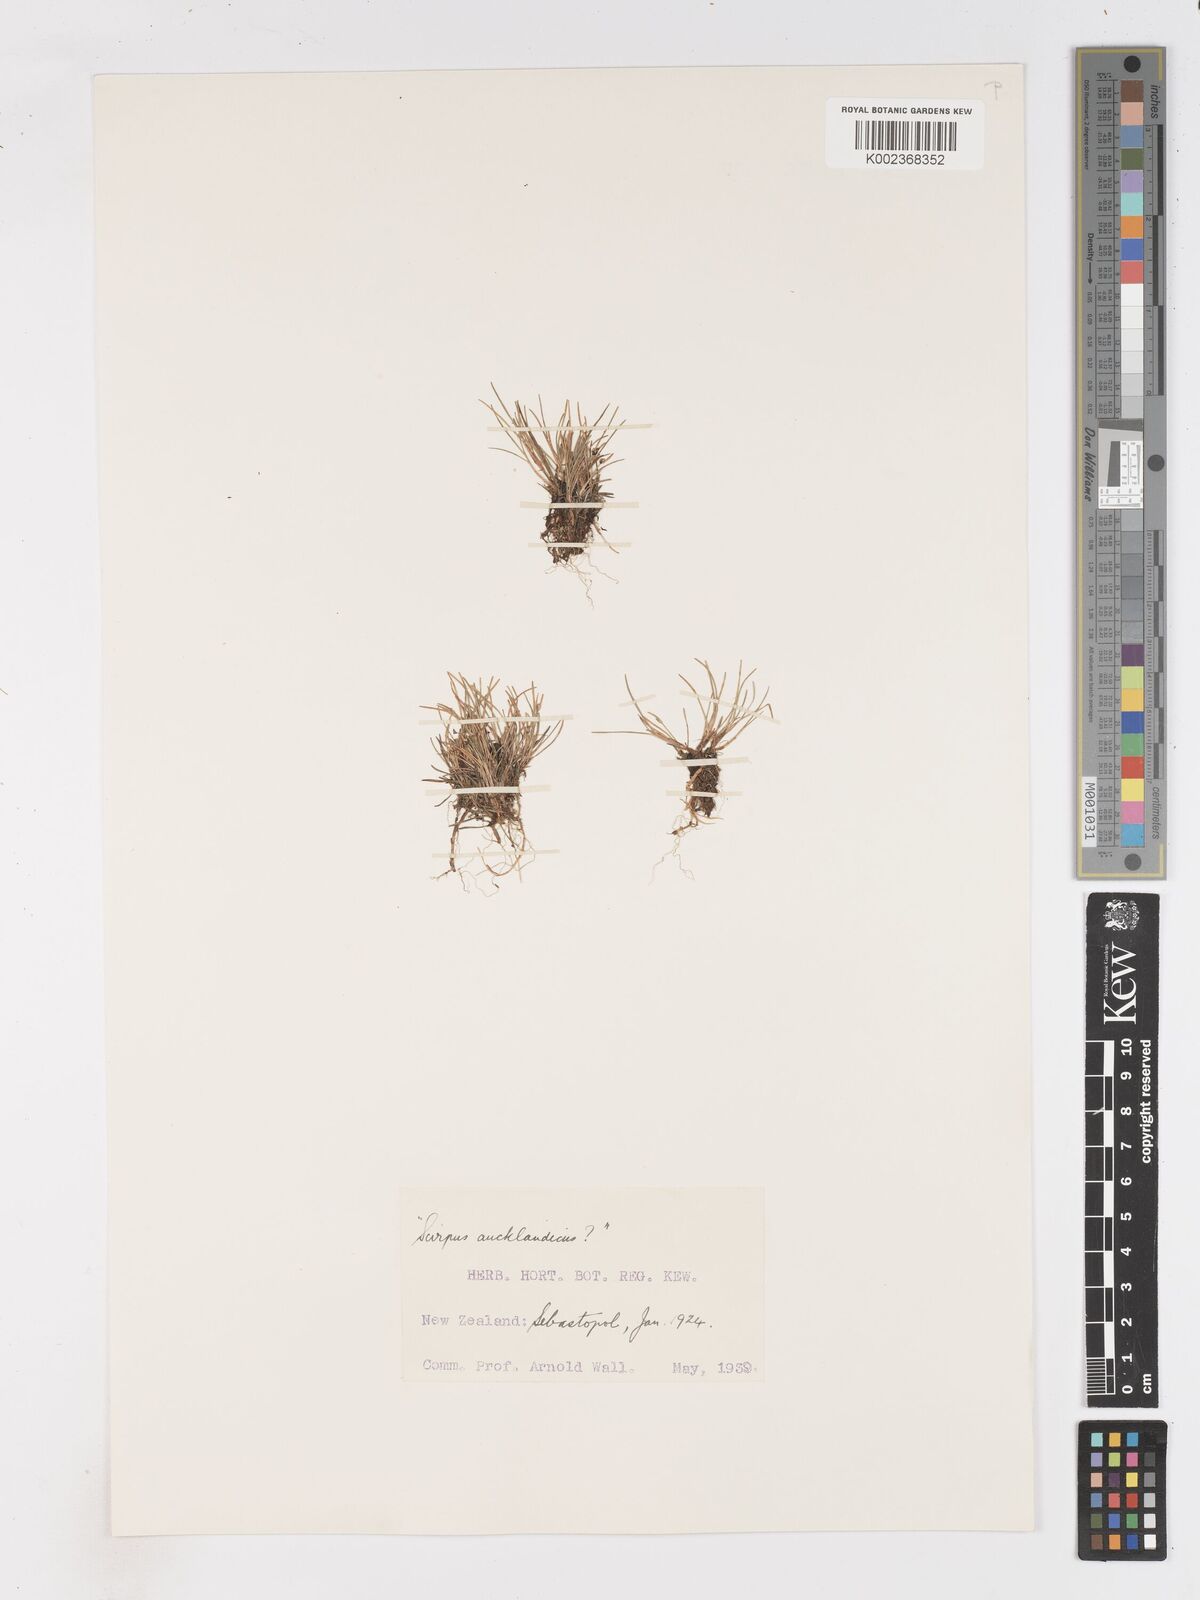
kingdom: Plantae
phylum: Tracheophyta
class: Liliopsida
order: Poales
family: Cyperaceae
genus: Isolepis
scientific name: Isolepis aucklandica
